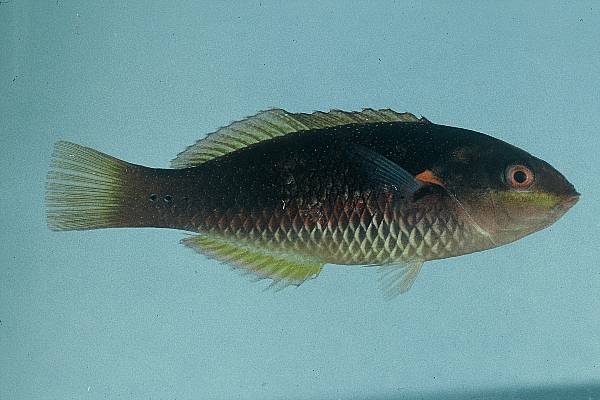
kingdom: Animalia
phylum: Chordata
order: Perciformes
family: Labridae
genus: Stethojulis
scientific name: Stethojulis albovittata
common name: Bluelined wrasse
